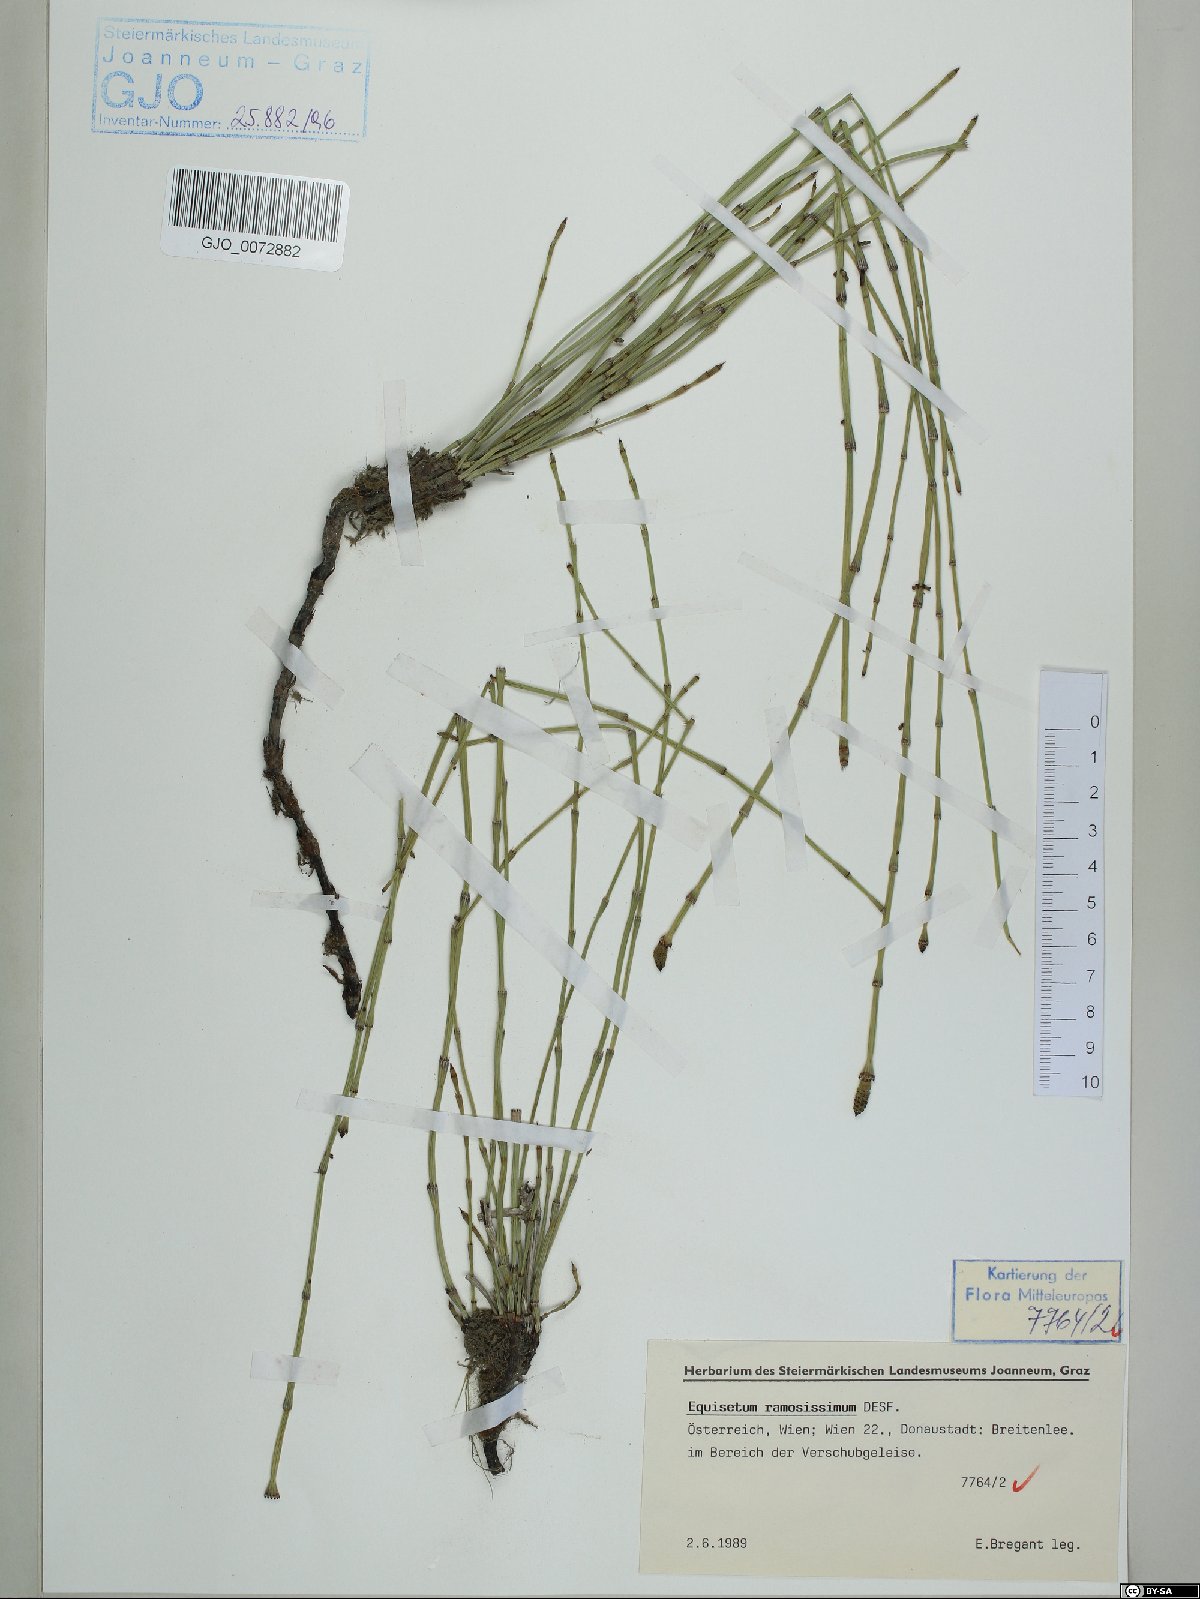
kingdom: Plantae
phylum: Tracheophyta
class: Polypodiopsida
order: Equisetales
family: Equisetaceae
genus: Equisetum
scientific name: Equisetum ramosissimum
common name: Branched horsetail
